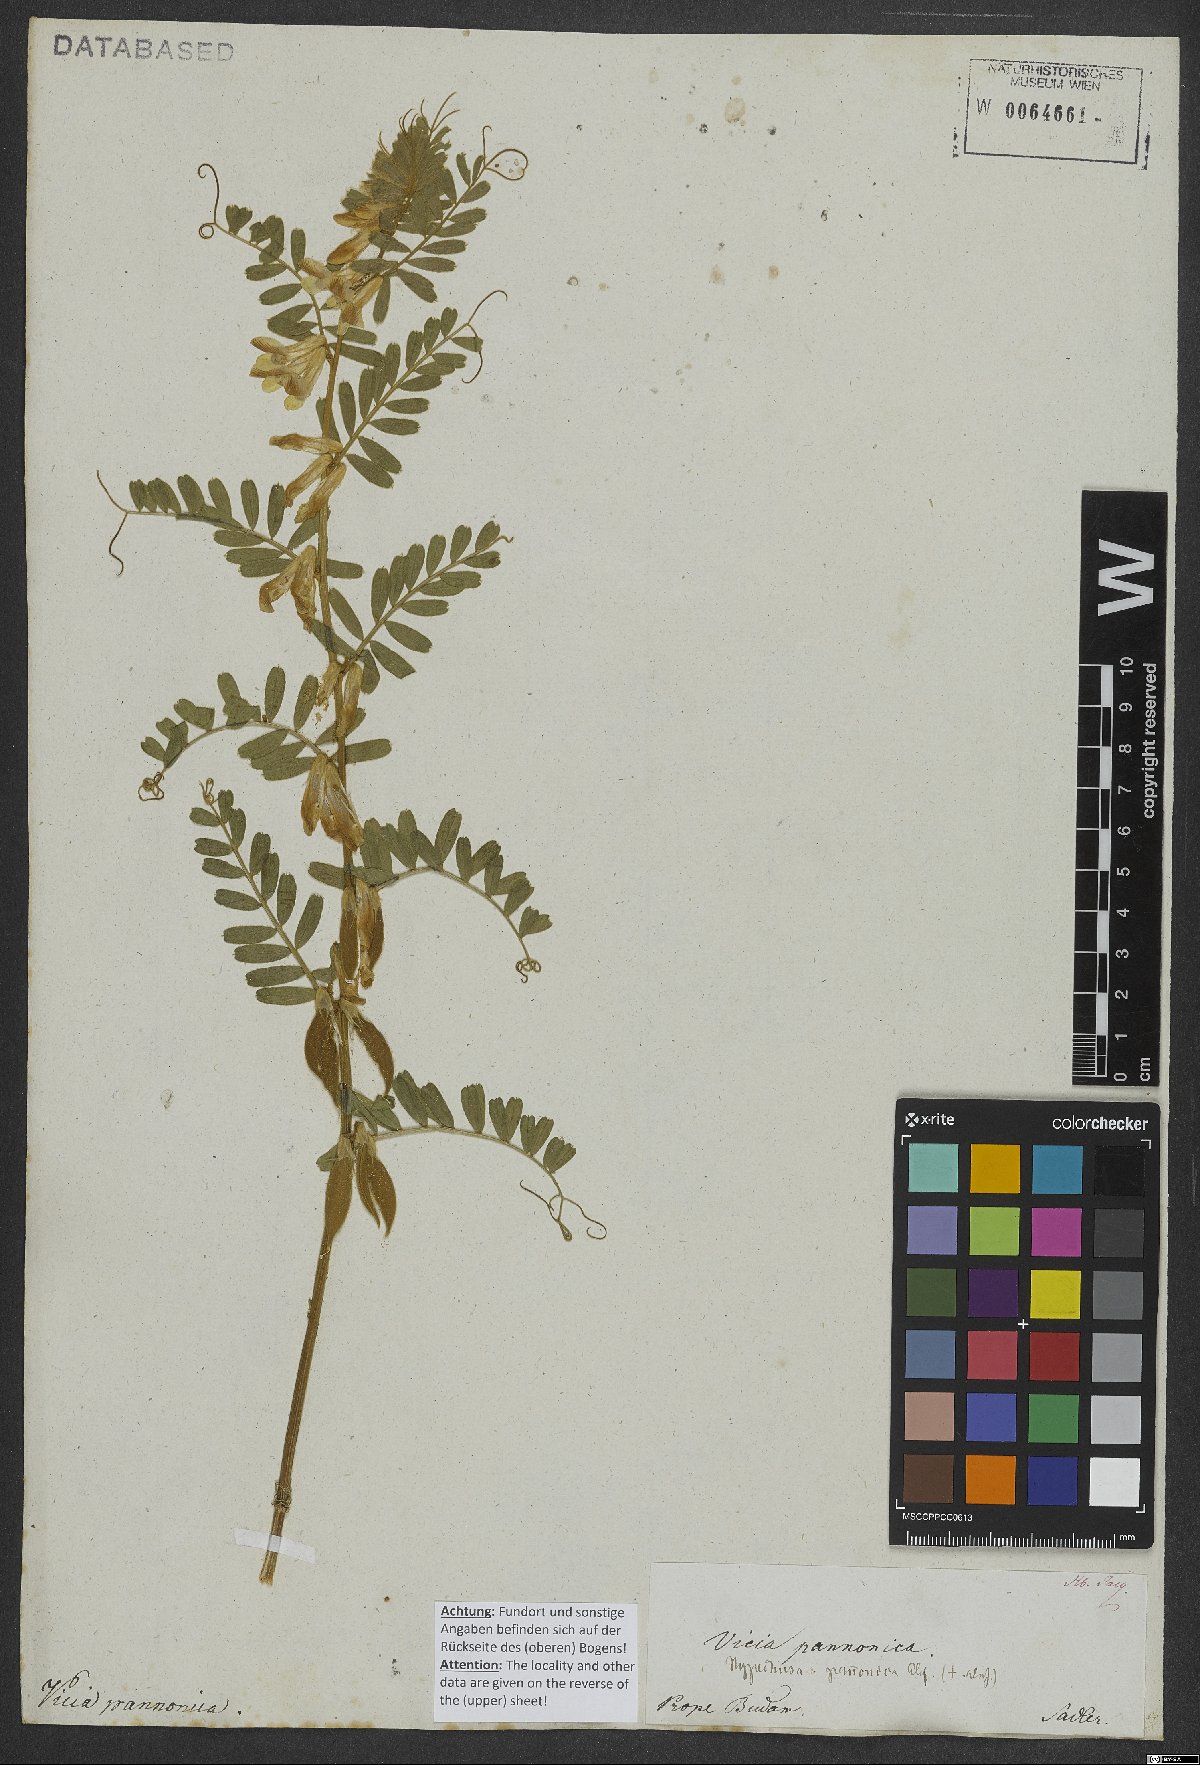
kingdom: Plantae
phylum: Tracheophyta
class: Magnoliopsida
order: Fabales
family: Fabaceae
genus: Vicia
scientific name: Vicia pannonica
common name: Hungarian vetch
